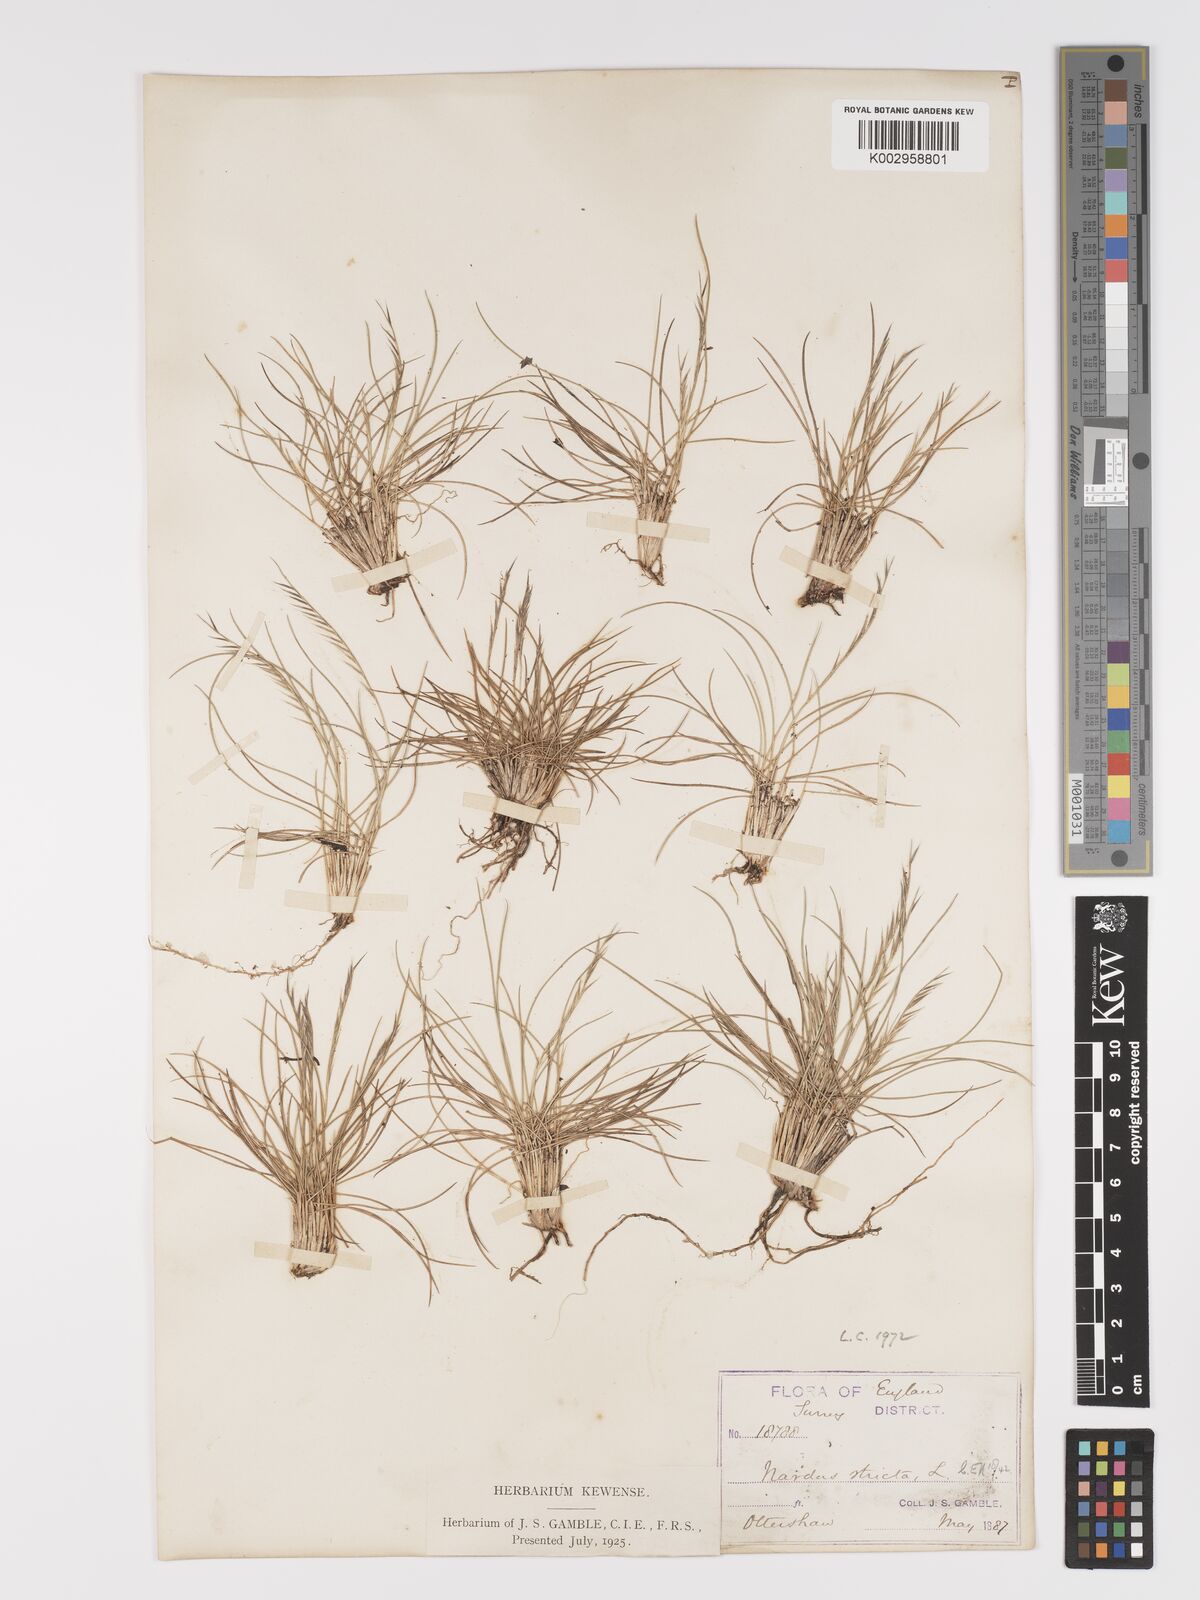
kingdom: Plantae
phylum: Tracheophyta
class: Liliopsida
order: Poales
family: Poaceae
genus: Nardus
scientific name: Nardus stricta
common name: Mat-grass
